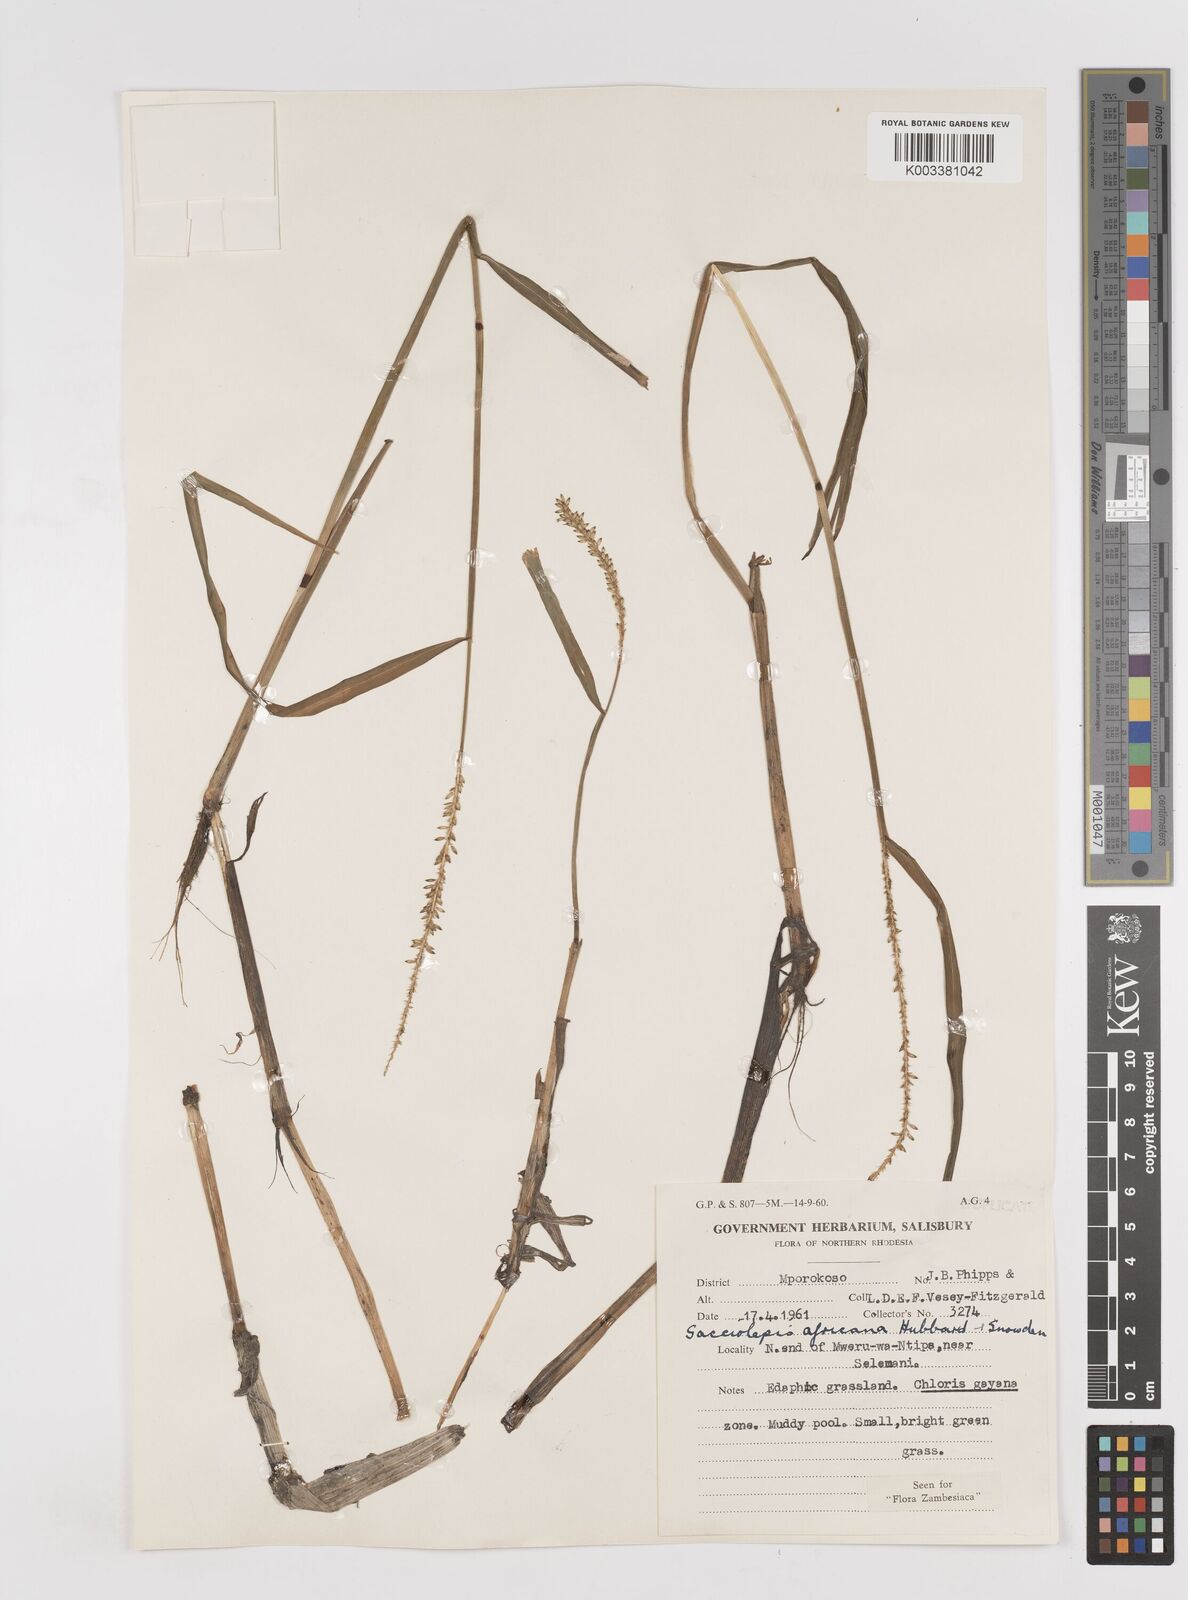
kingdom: Plantae
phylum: Tracheophyta
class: Liliopsida
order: Poales
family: Poaceae
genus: Sacciolepis
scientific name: Sacciolepis africana
